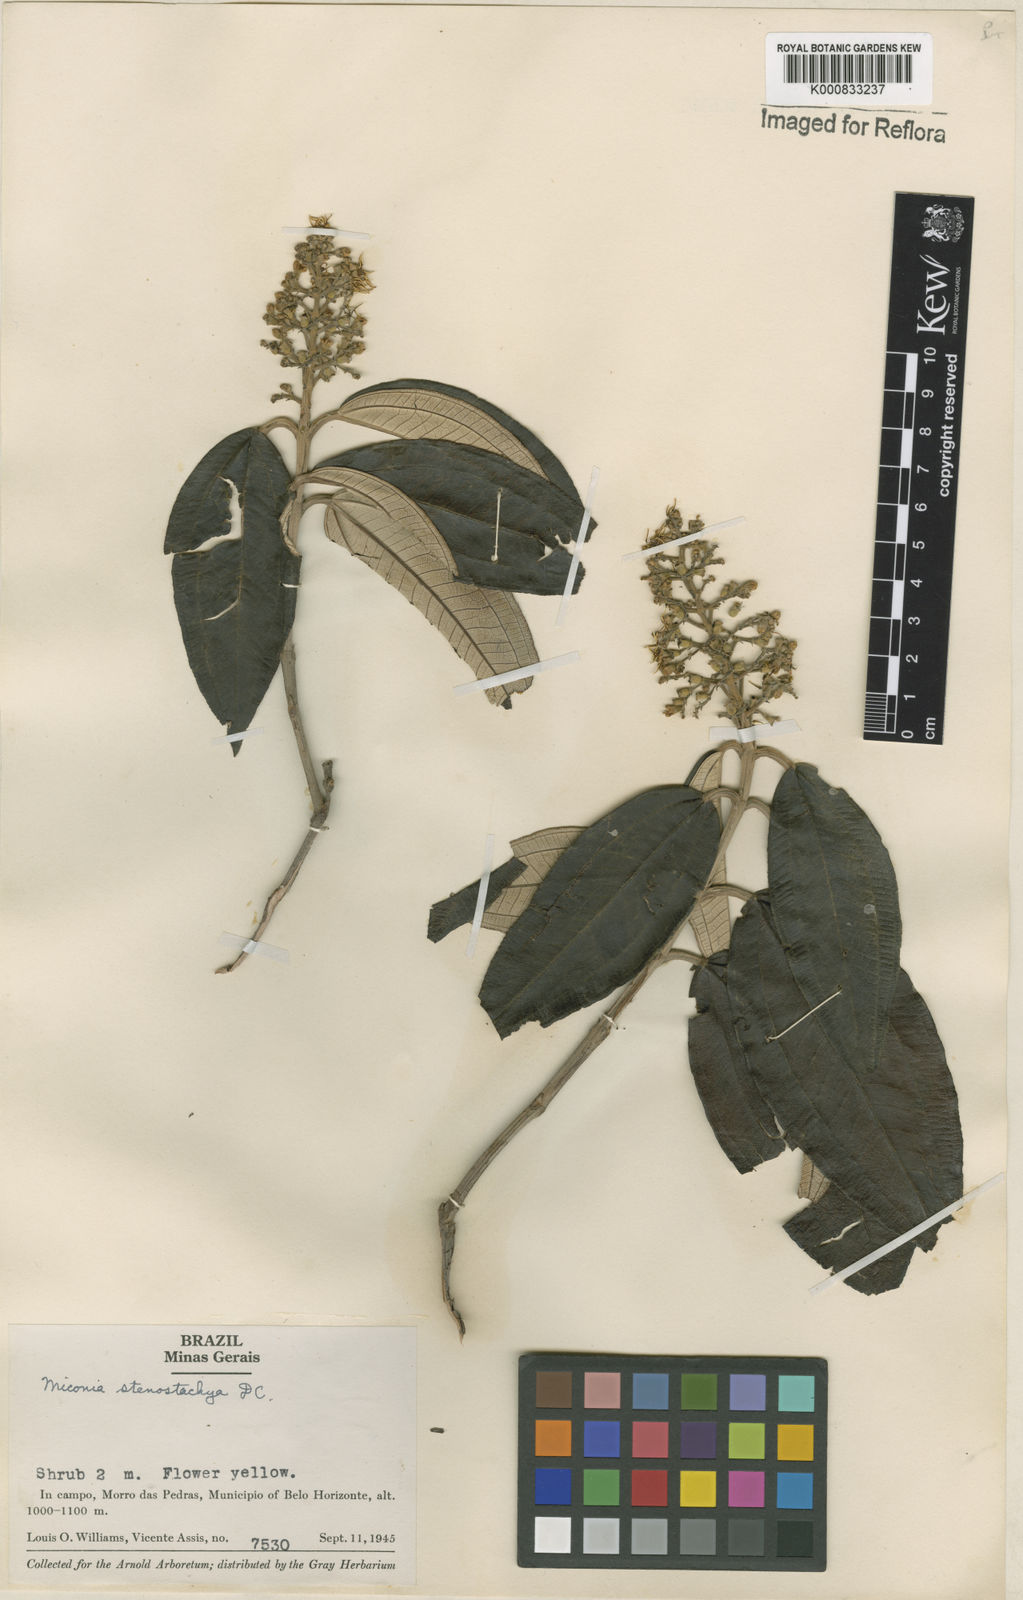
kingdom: Plantae
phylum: Tracheophyta
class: Magnoliopsida
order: Myrtales
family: Melastomataceae
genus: Miconia
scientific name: Miconia stenostachya
